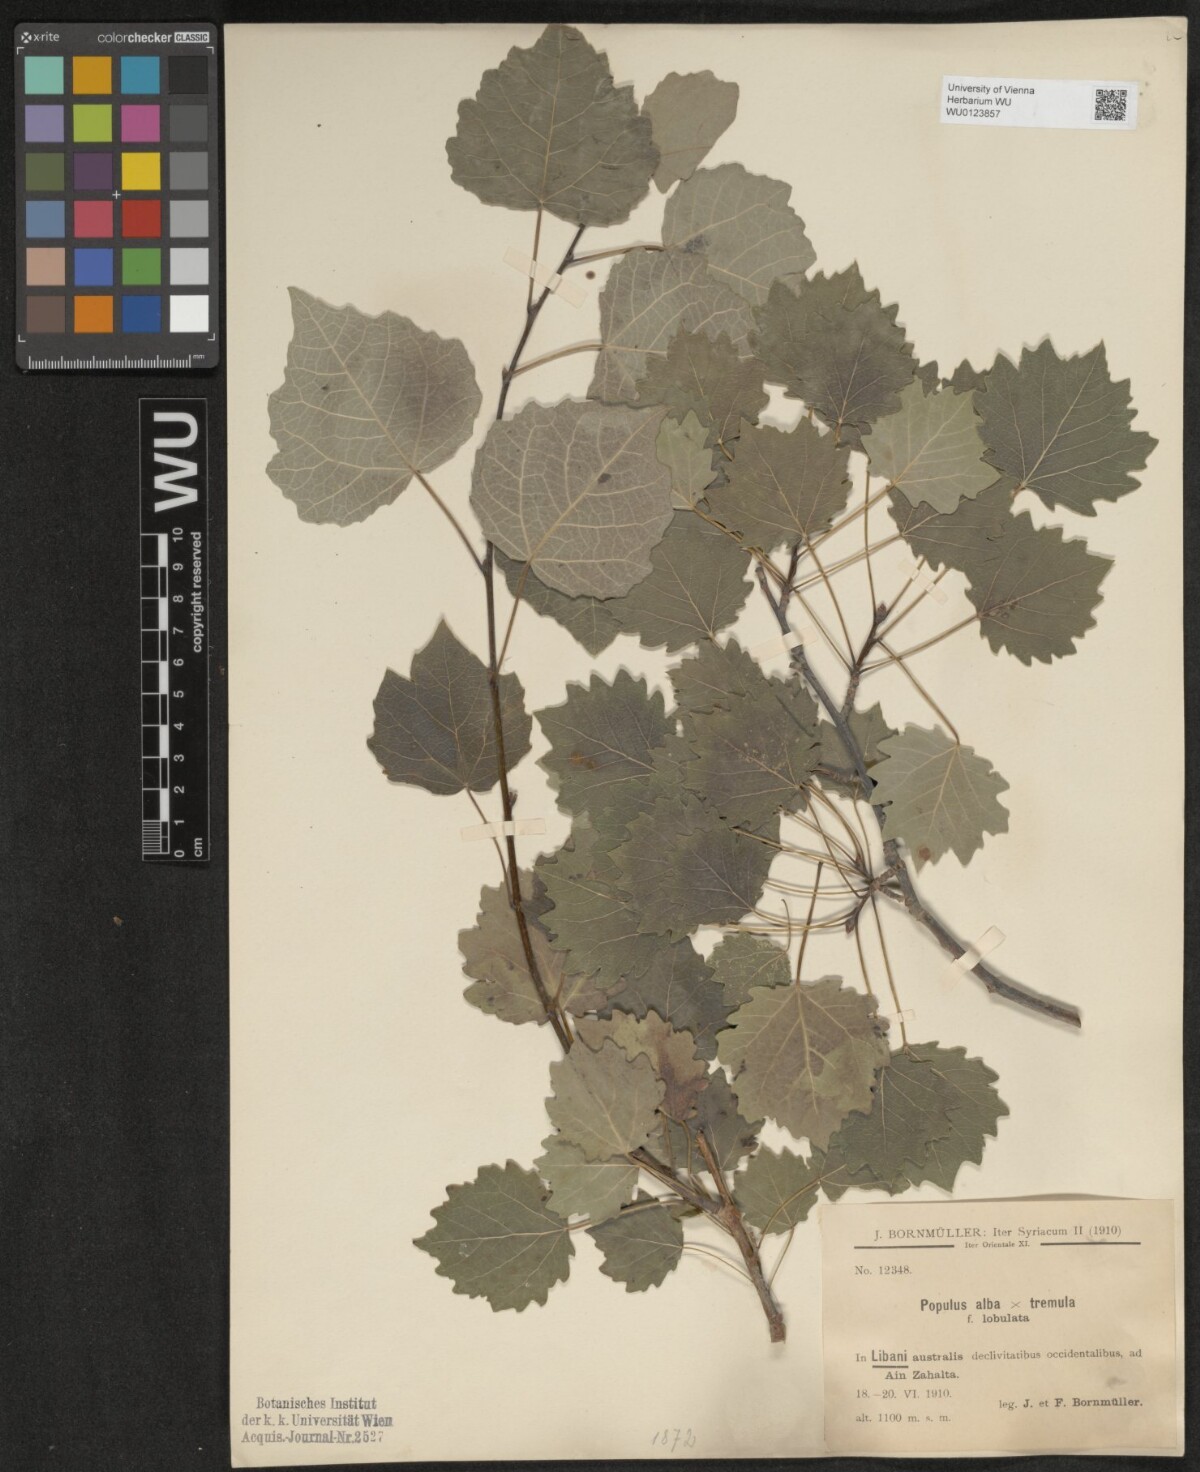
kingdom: Plantae
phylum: Tracheophyta
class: Magnoliopsida
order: Malpighiales
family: Salicaceae
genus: Populus
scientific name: Populus canescens
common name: Gray poplar
